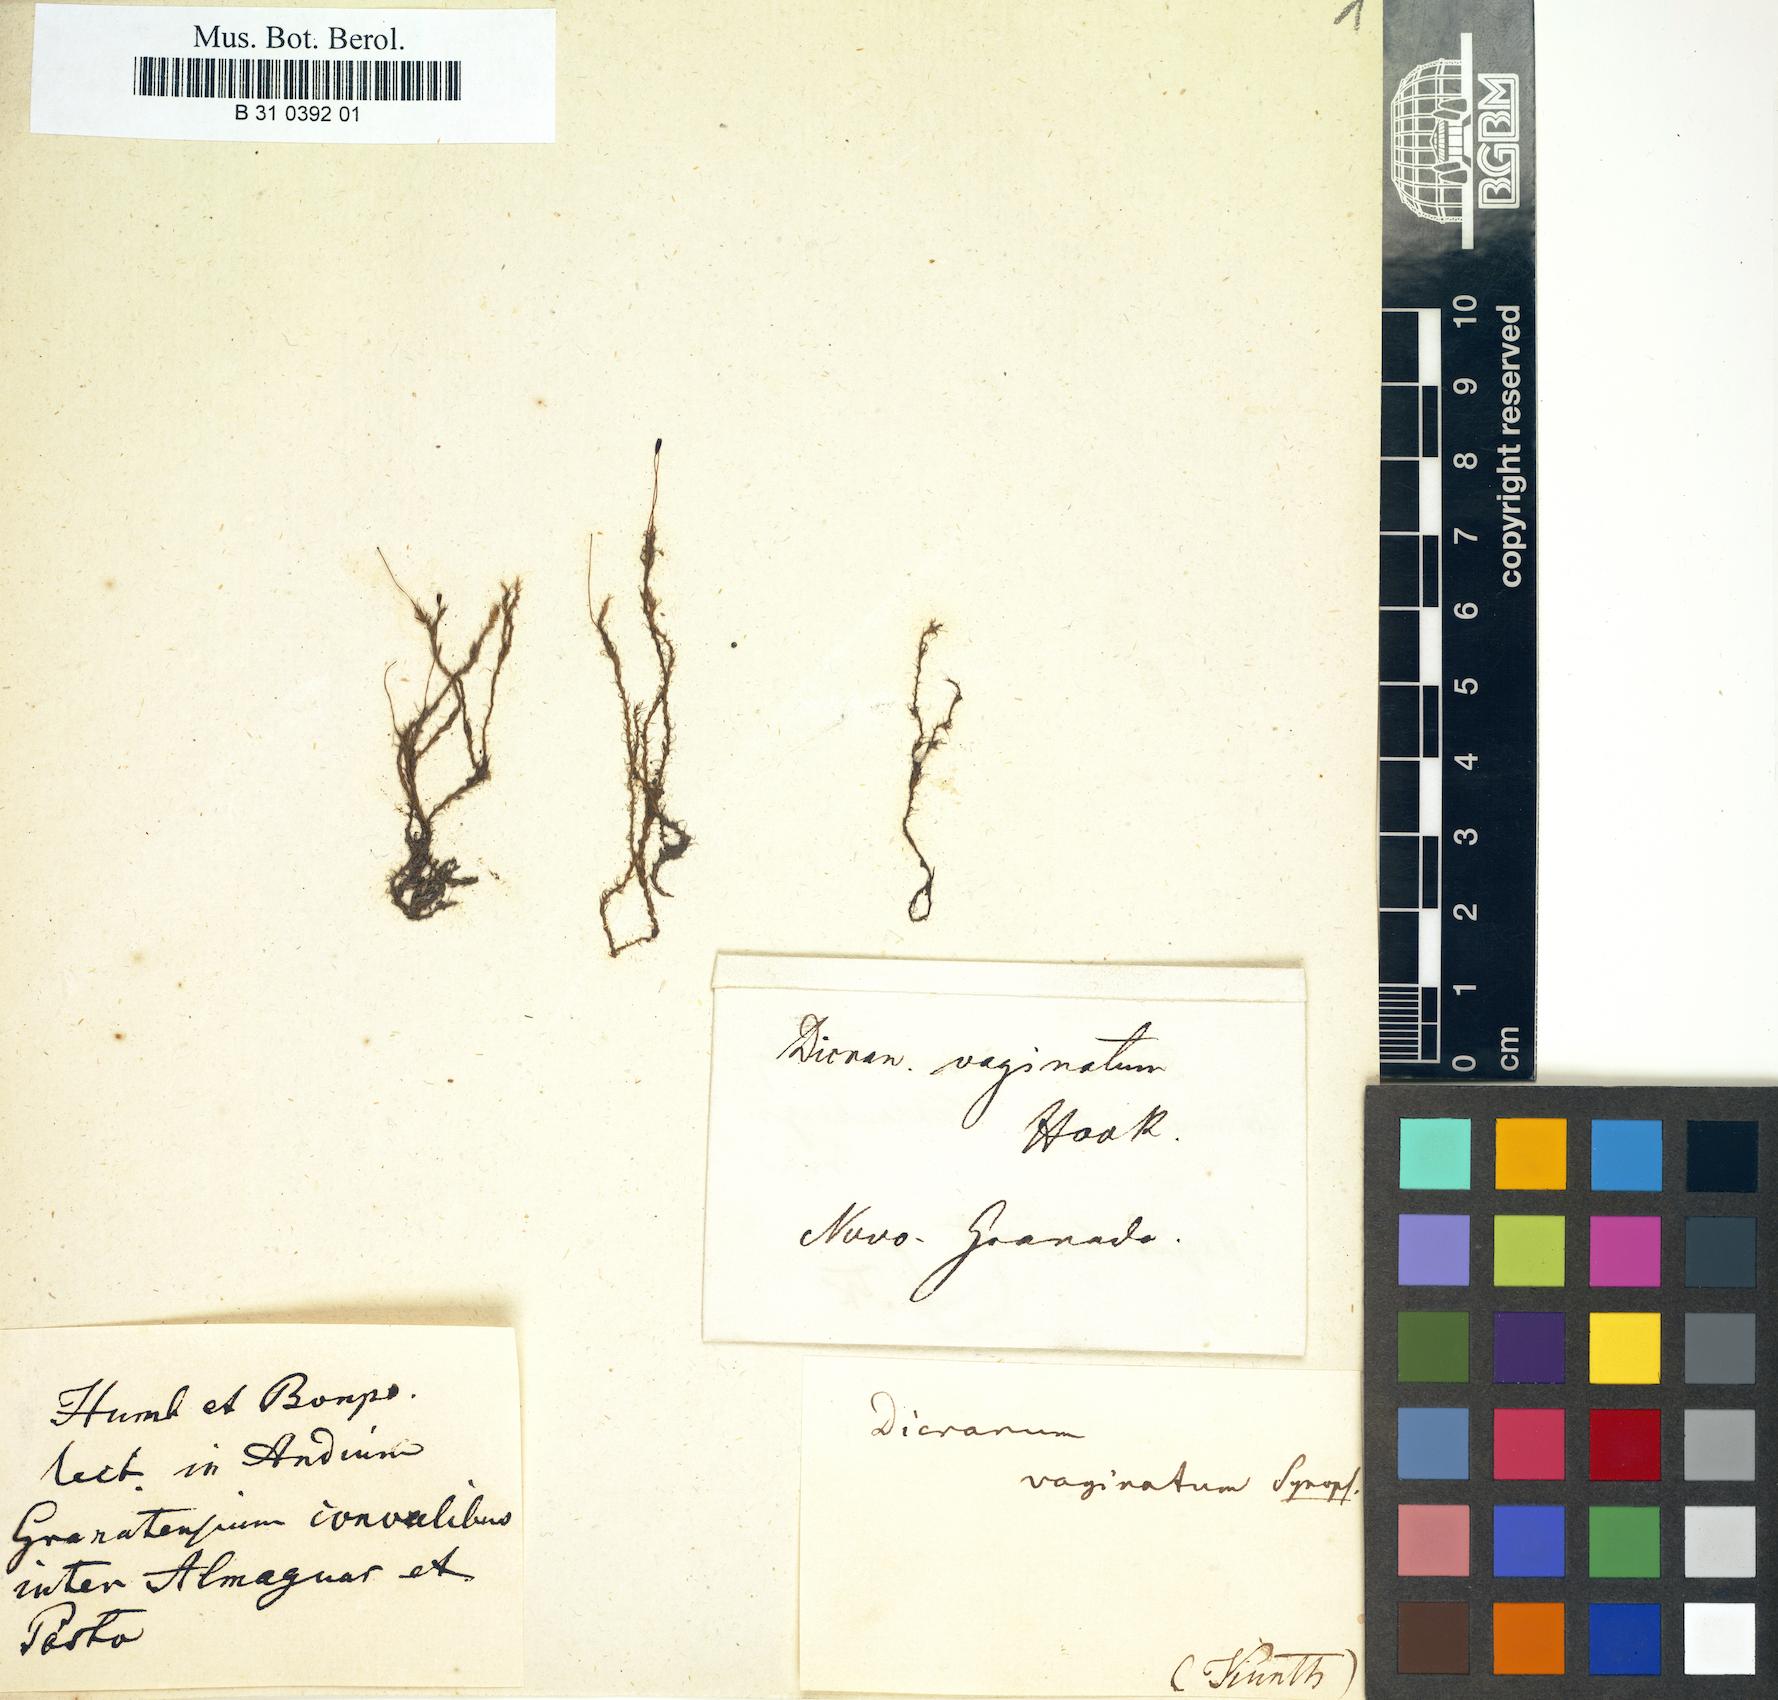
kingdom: Plantae
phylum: Bryophyta
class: Bryopsida
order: Dicranales
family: Dicranellaceae
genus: Dicranella
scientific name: Dicranella vaginata
